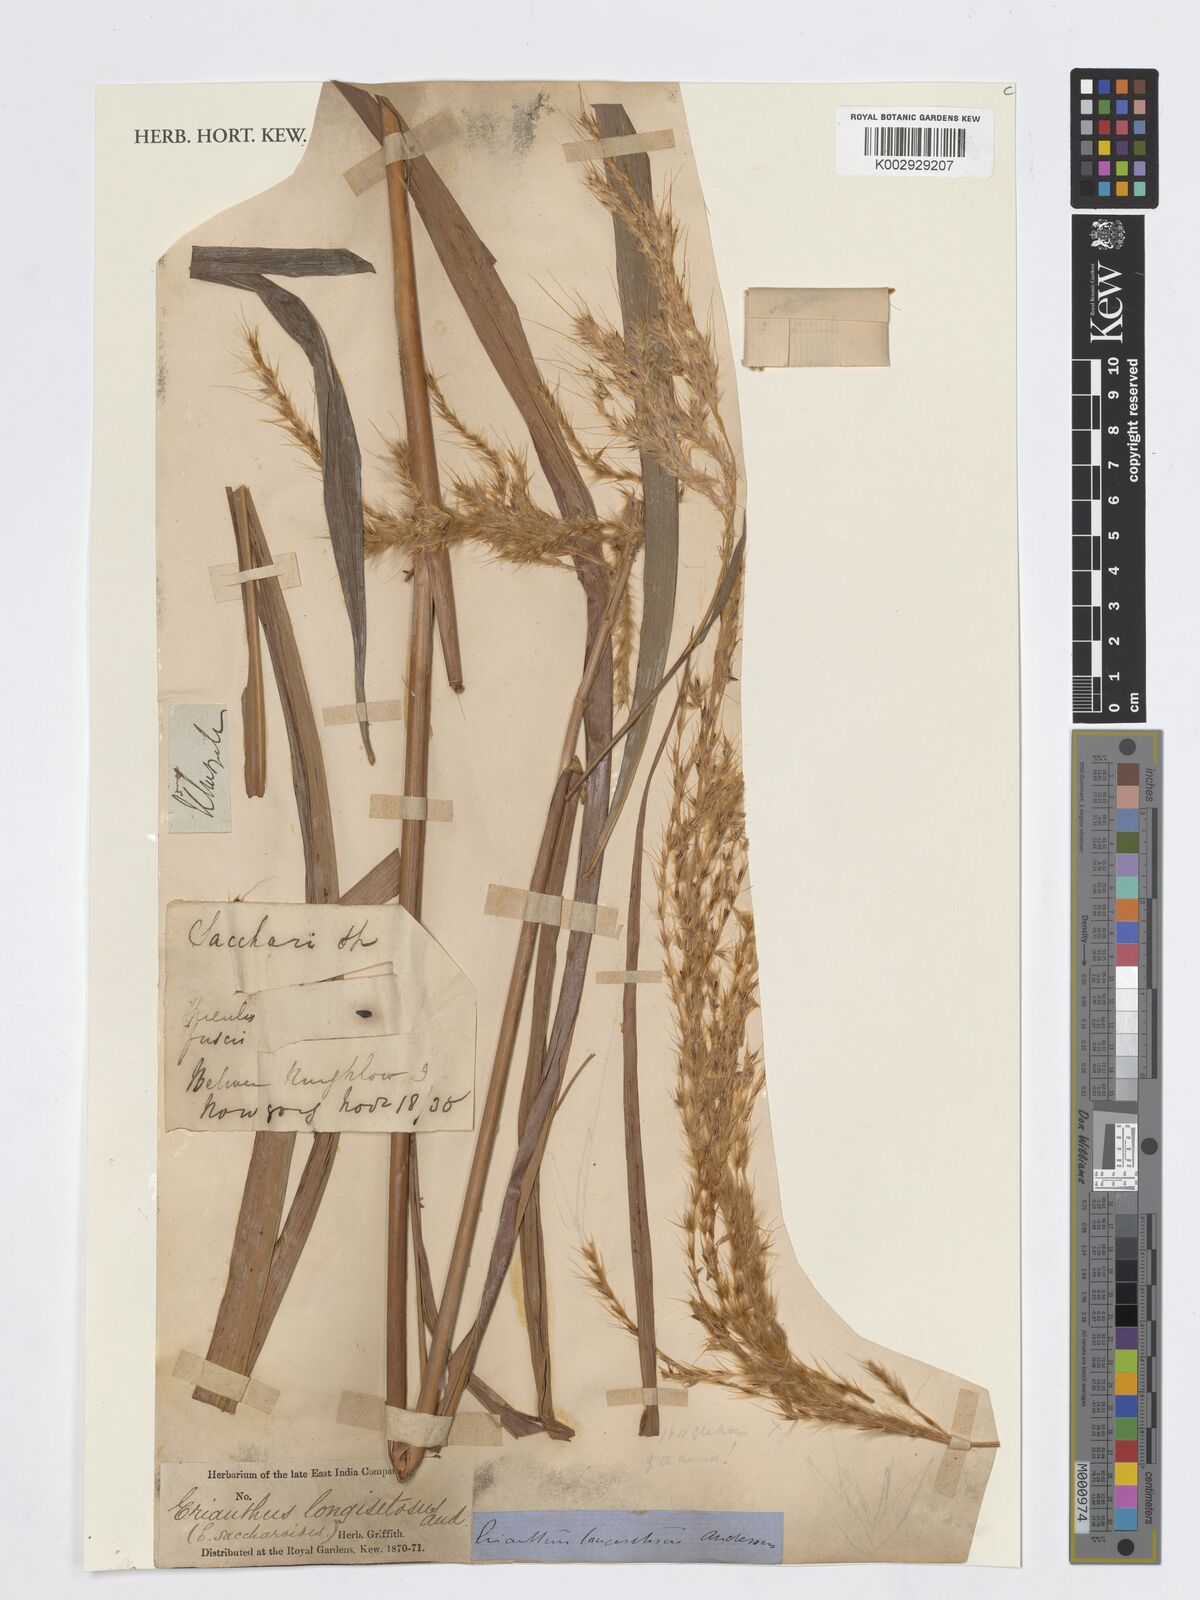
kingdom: Plantae
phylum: Tracheophyta
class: Liliopsida
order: Poales
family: Poaceae
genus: Saccharum
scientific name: Saccharum longesetosum
